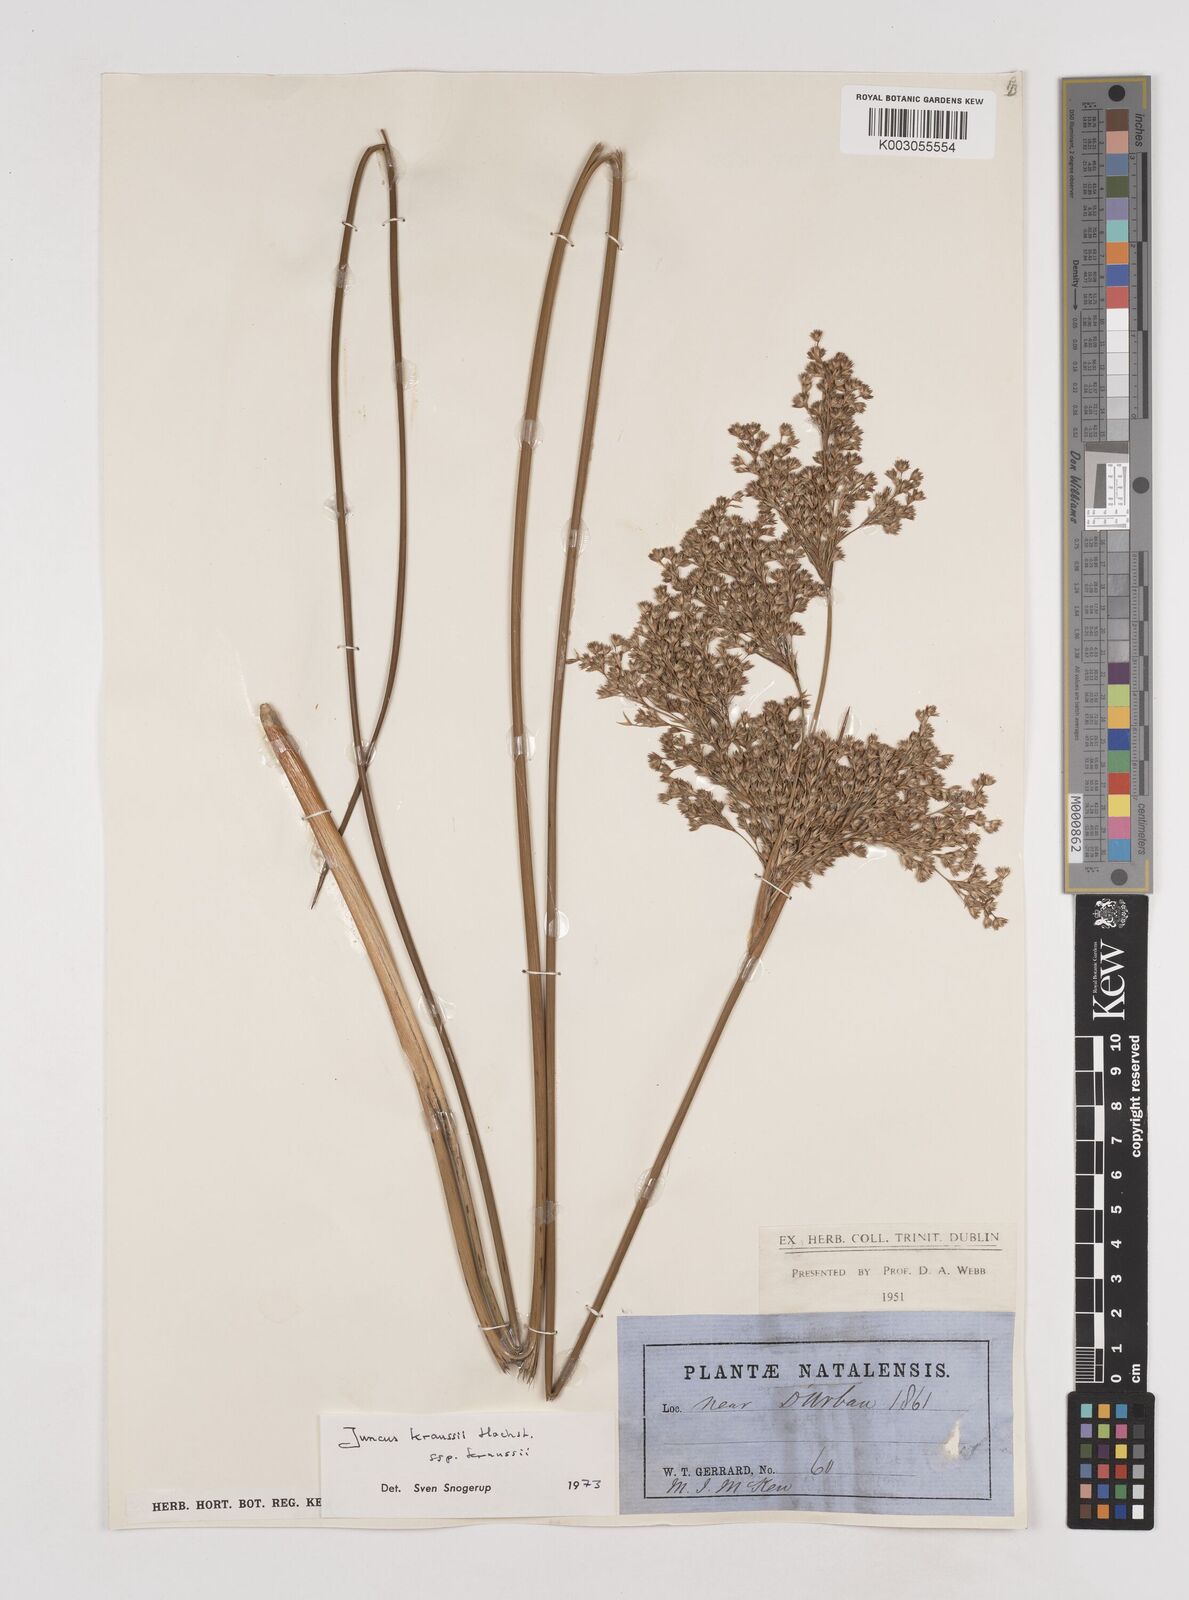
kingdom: Plantae
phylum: Tracheophyta
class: Liliopsida
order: Poales
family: Juncaceae
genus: Juncus
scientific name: Juncus kraussii
